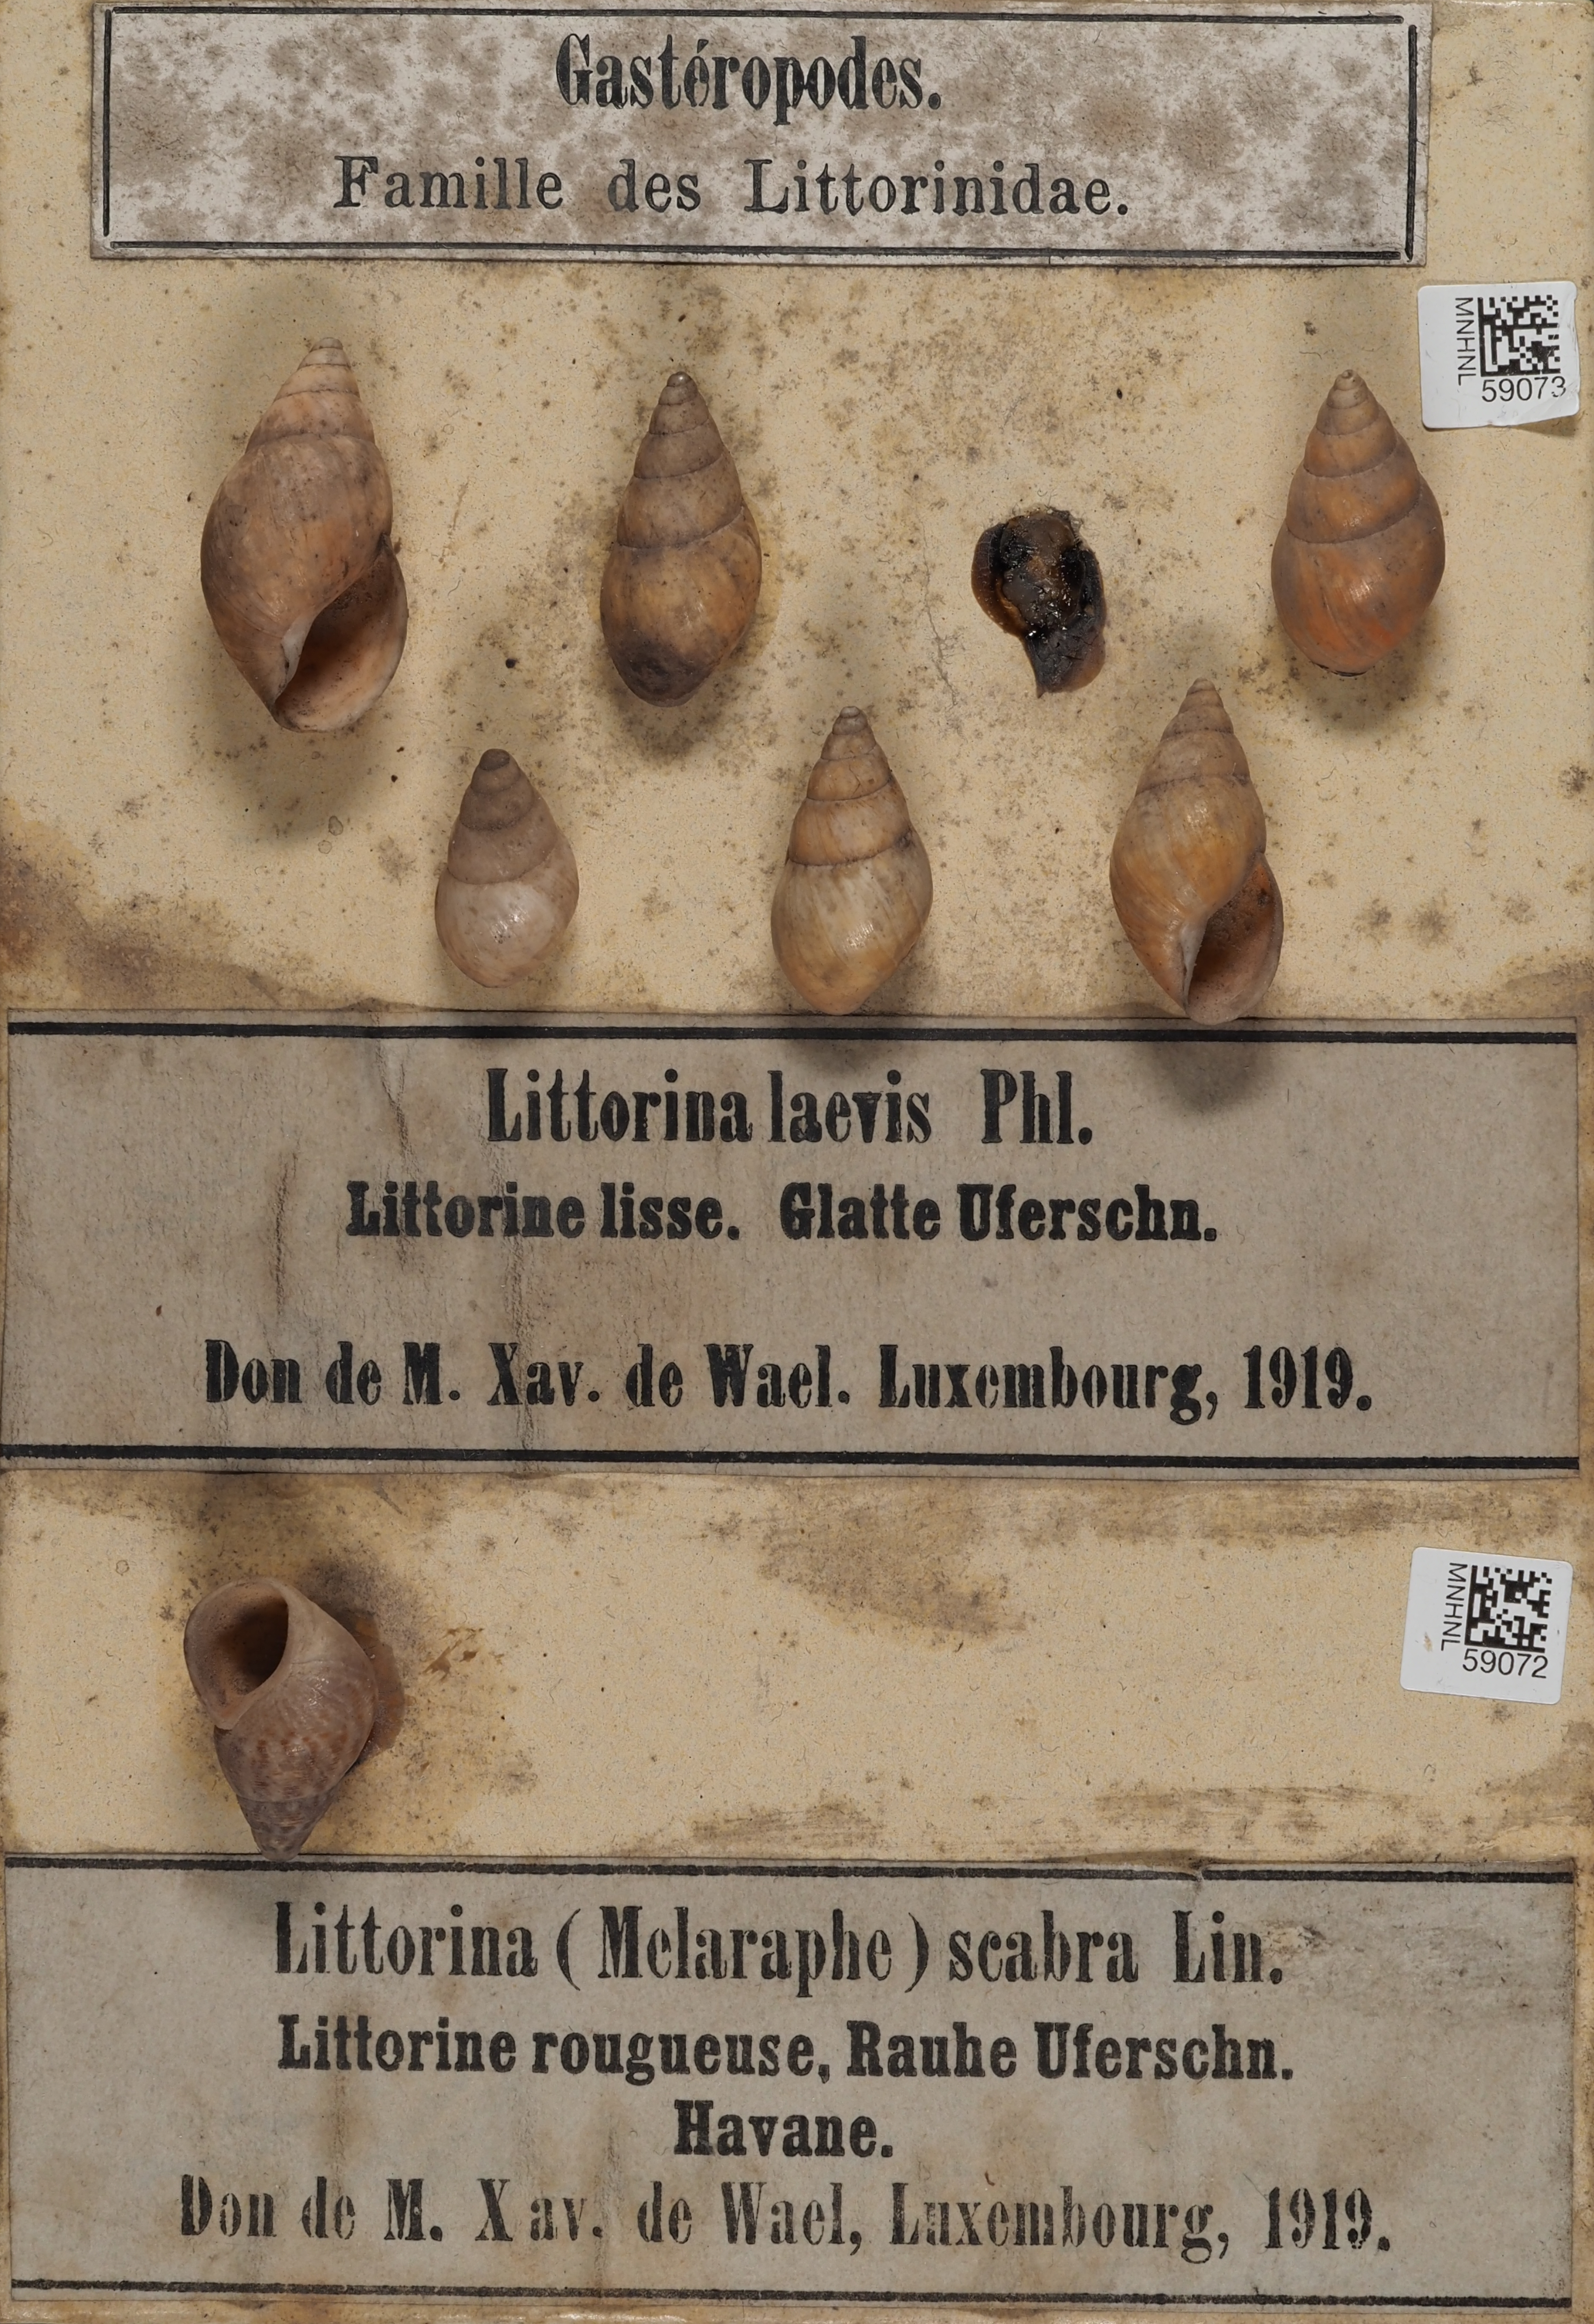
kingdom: Animalia
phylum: Mollusca
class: Gastropoda
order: Littorinimorpha
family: Littorinidae
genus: Littorina
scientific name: Littorina
